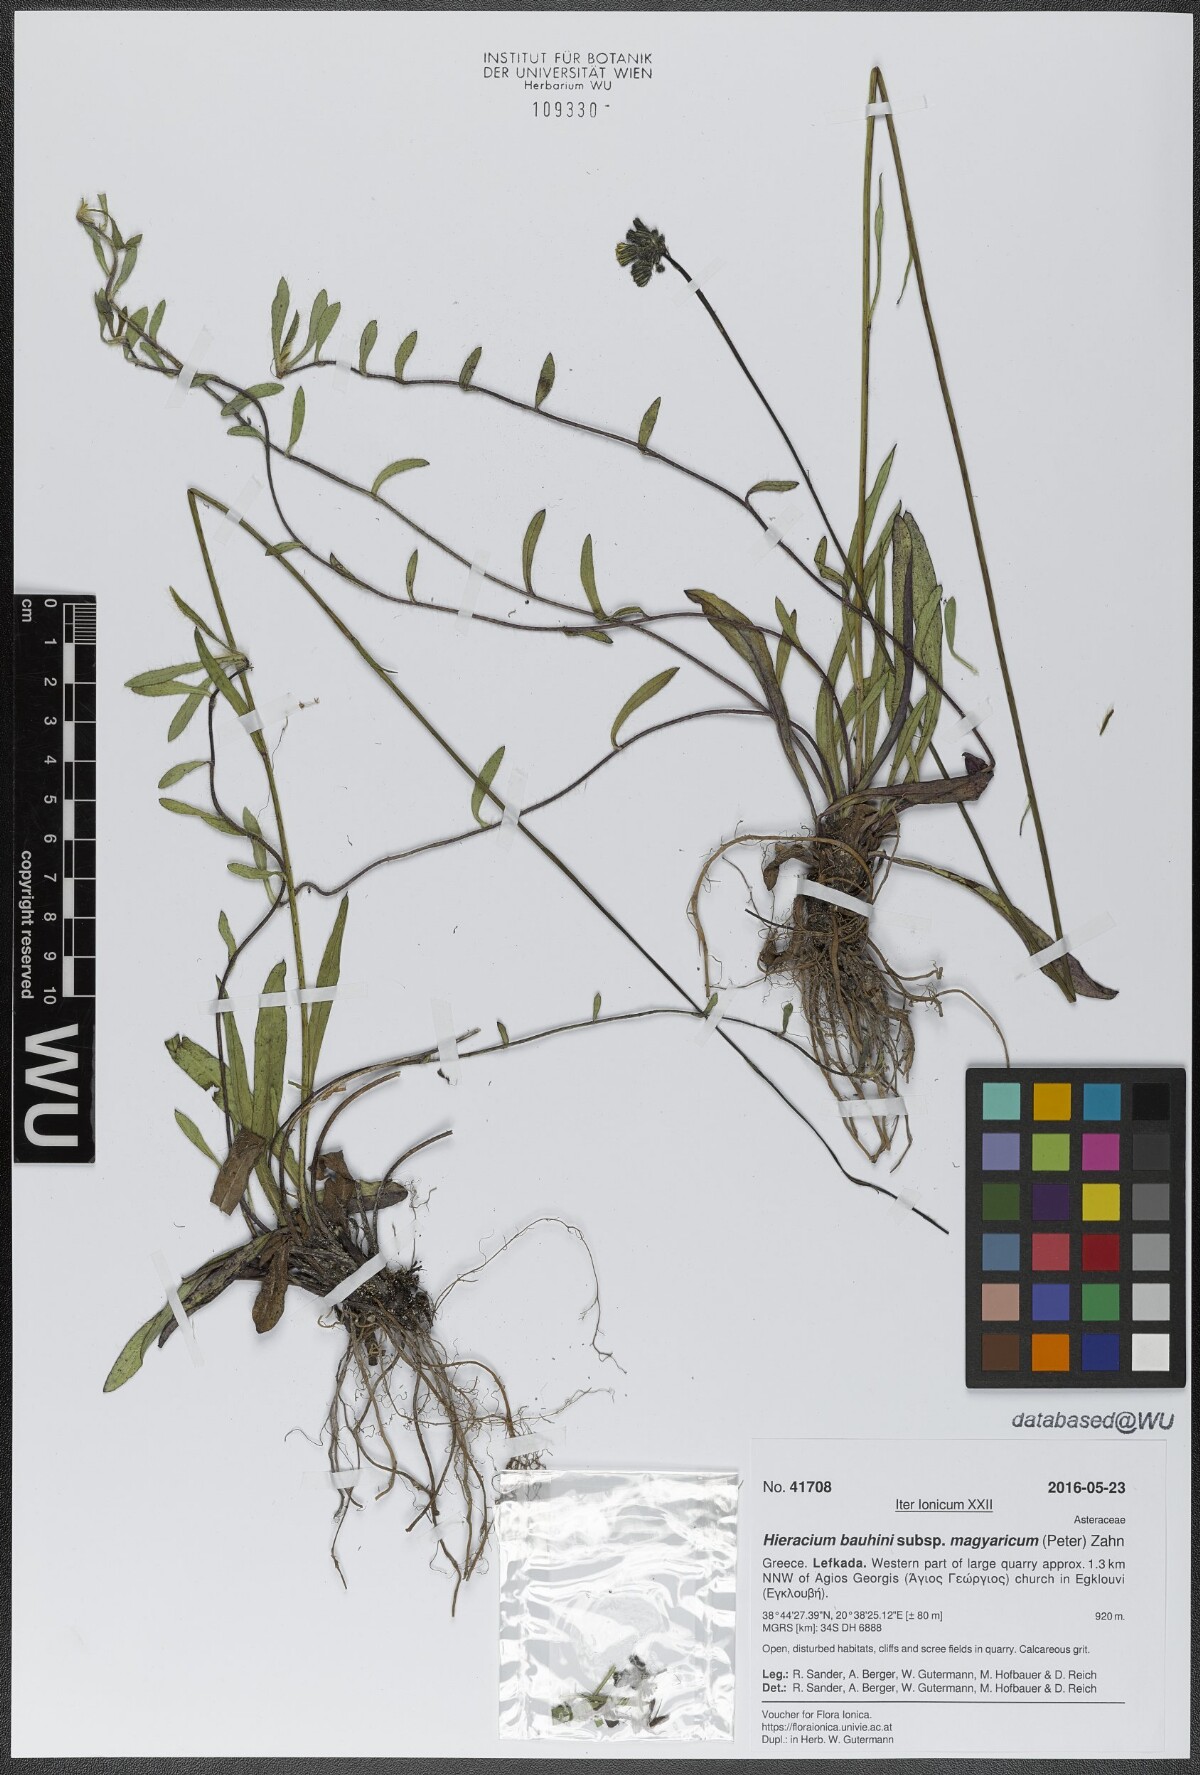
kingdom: Plantae
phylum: Tracheophyta
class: Magnoliopsida
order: Asterales
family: Asteraceae
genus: Pilosella
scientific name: Pilosella bauhini
